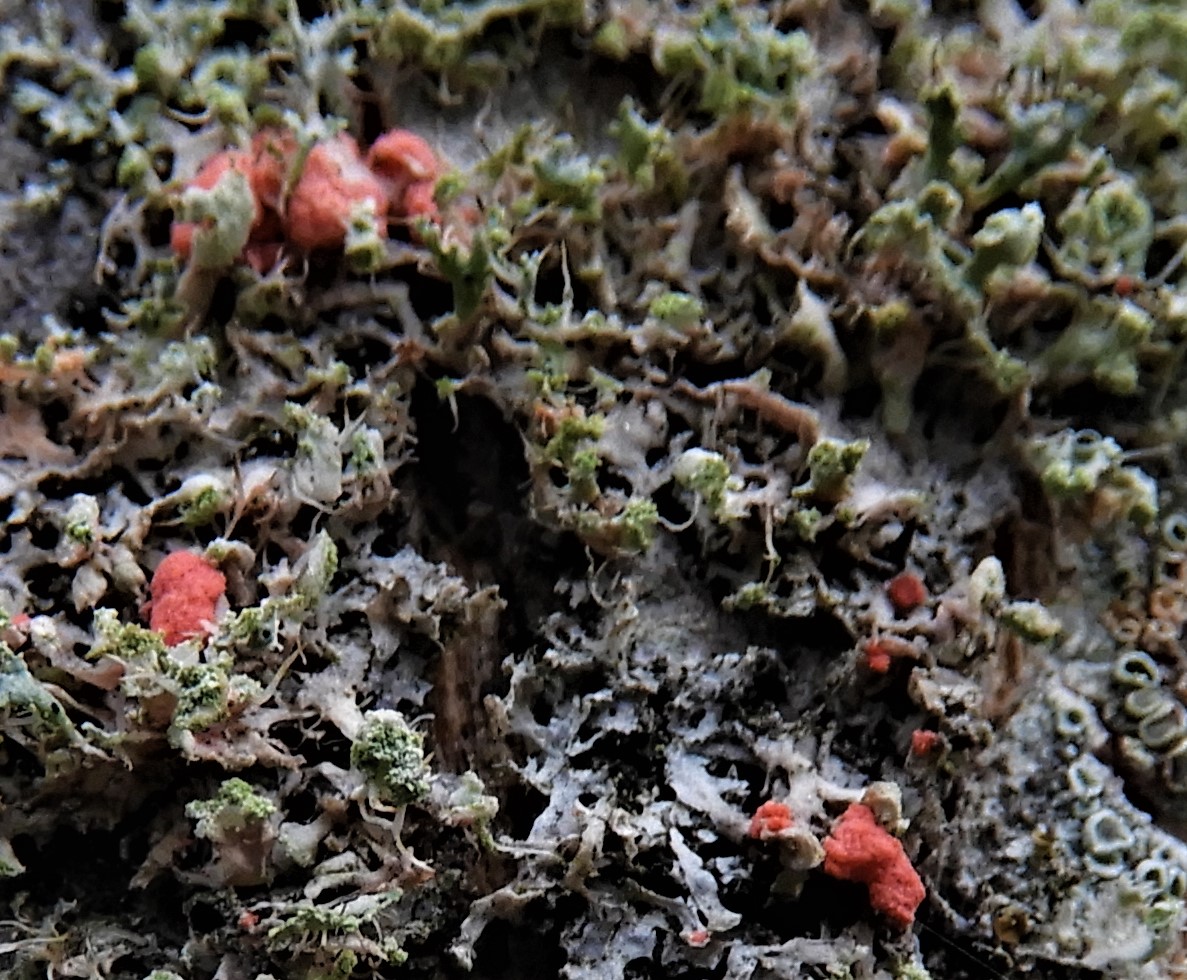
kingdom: Fungi
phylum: Ascomycota
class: Sordariomycetes
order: Hypocreales
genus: Illosporiopsis
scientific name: Illosporiopsis christiansenii
